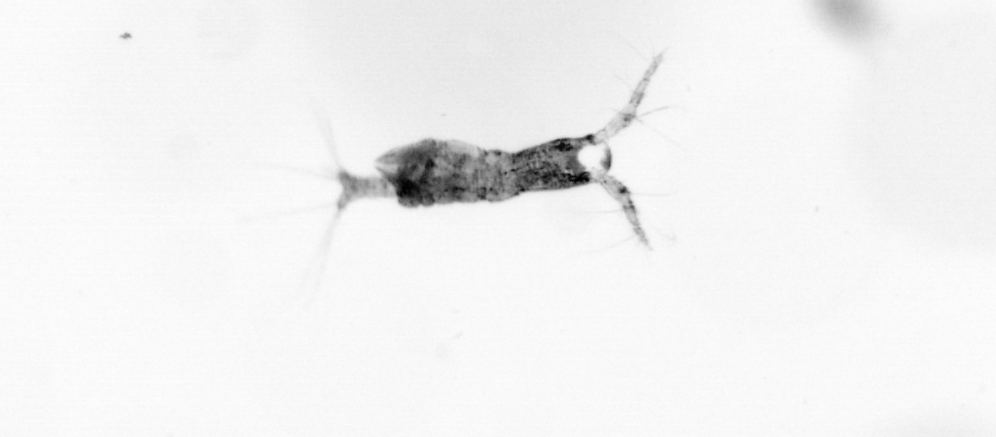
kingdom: Animalia
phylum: Arthropoda
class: Copepoda
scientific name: Copepoda
